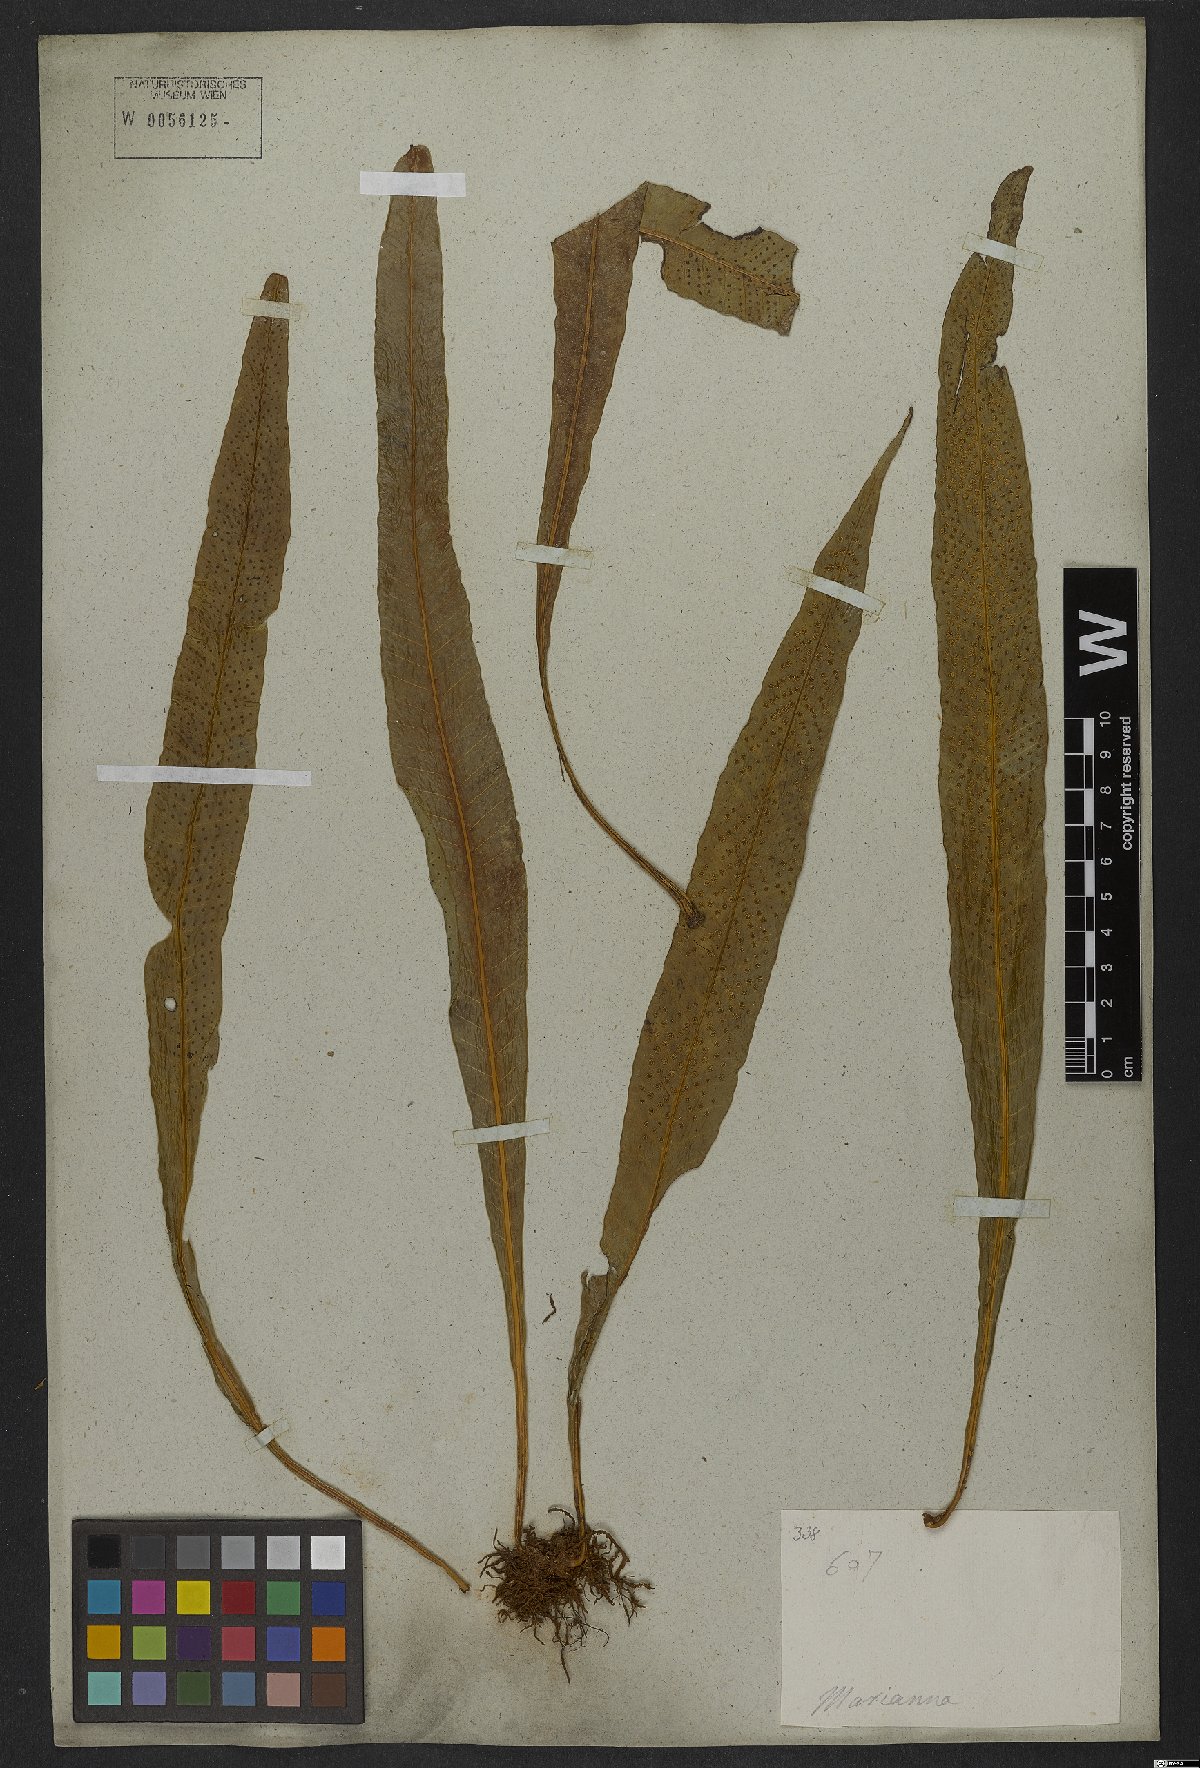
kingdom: Plantae
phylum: Tracheophyta
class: Polypodiopsida
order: Polypodiales
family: Polypodiaceae
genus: Campyloneurum
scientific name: Campyloneurum phyllitidis
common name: Cow-tongue fern
